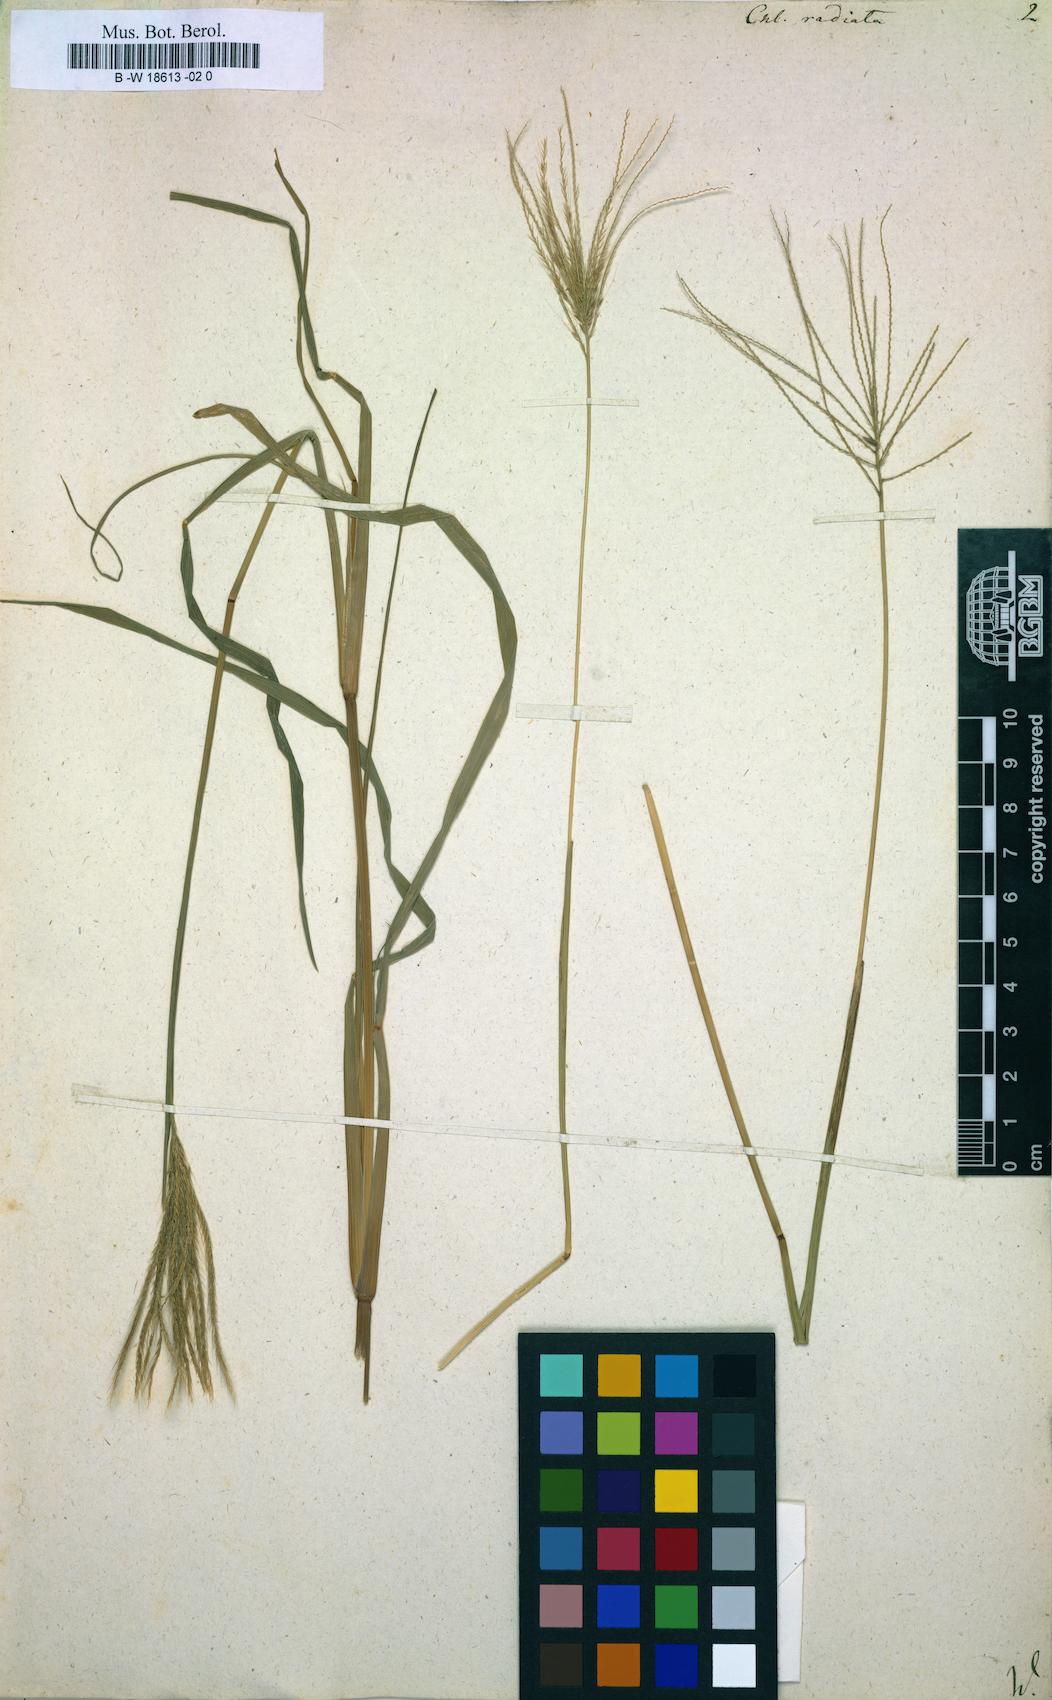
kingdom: Plantae
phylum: Tracheophyta
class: Liliopsida
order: Poales
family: Poaceae
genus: Chloris
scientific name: Chloris radiata
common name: Radiate fingergrass
